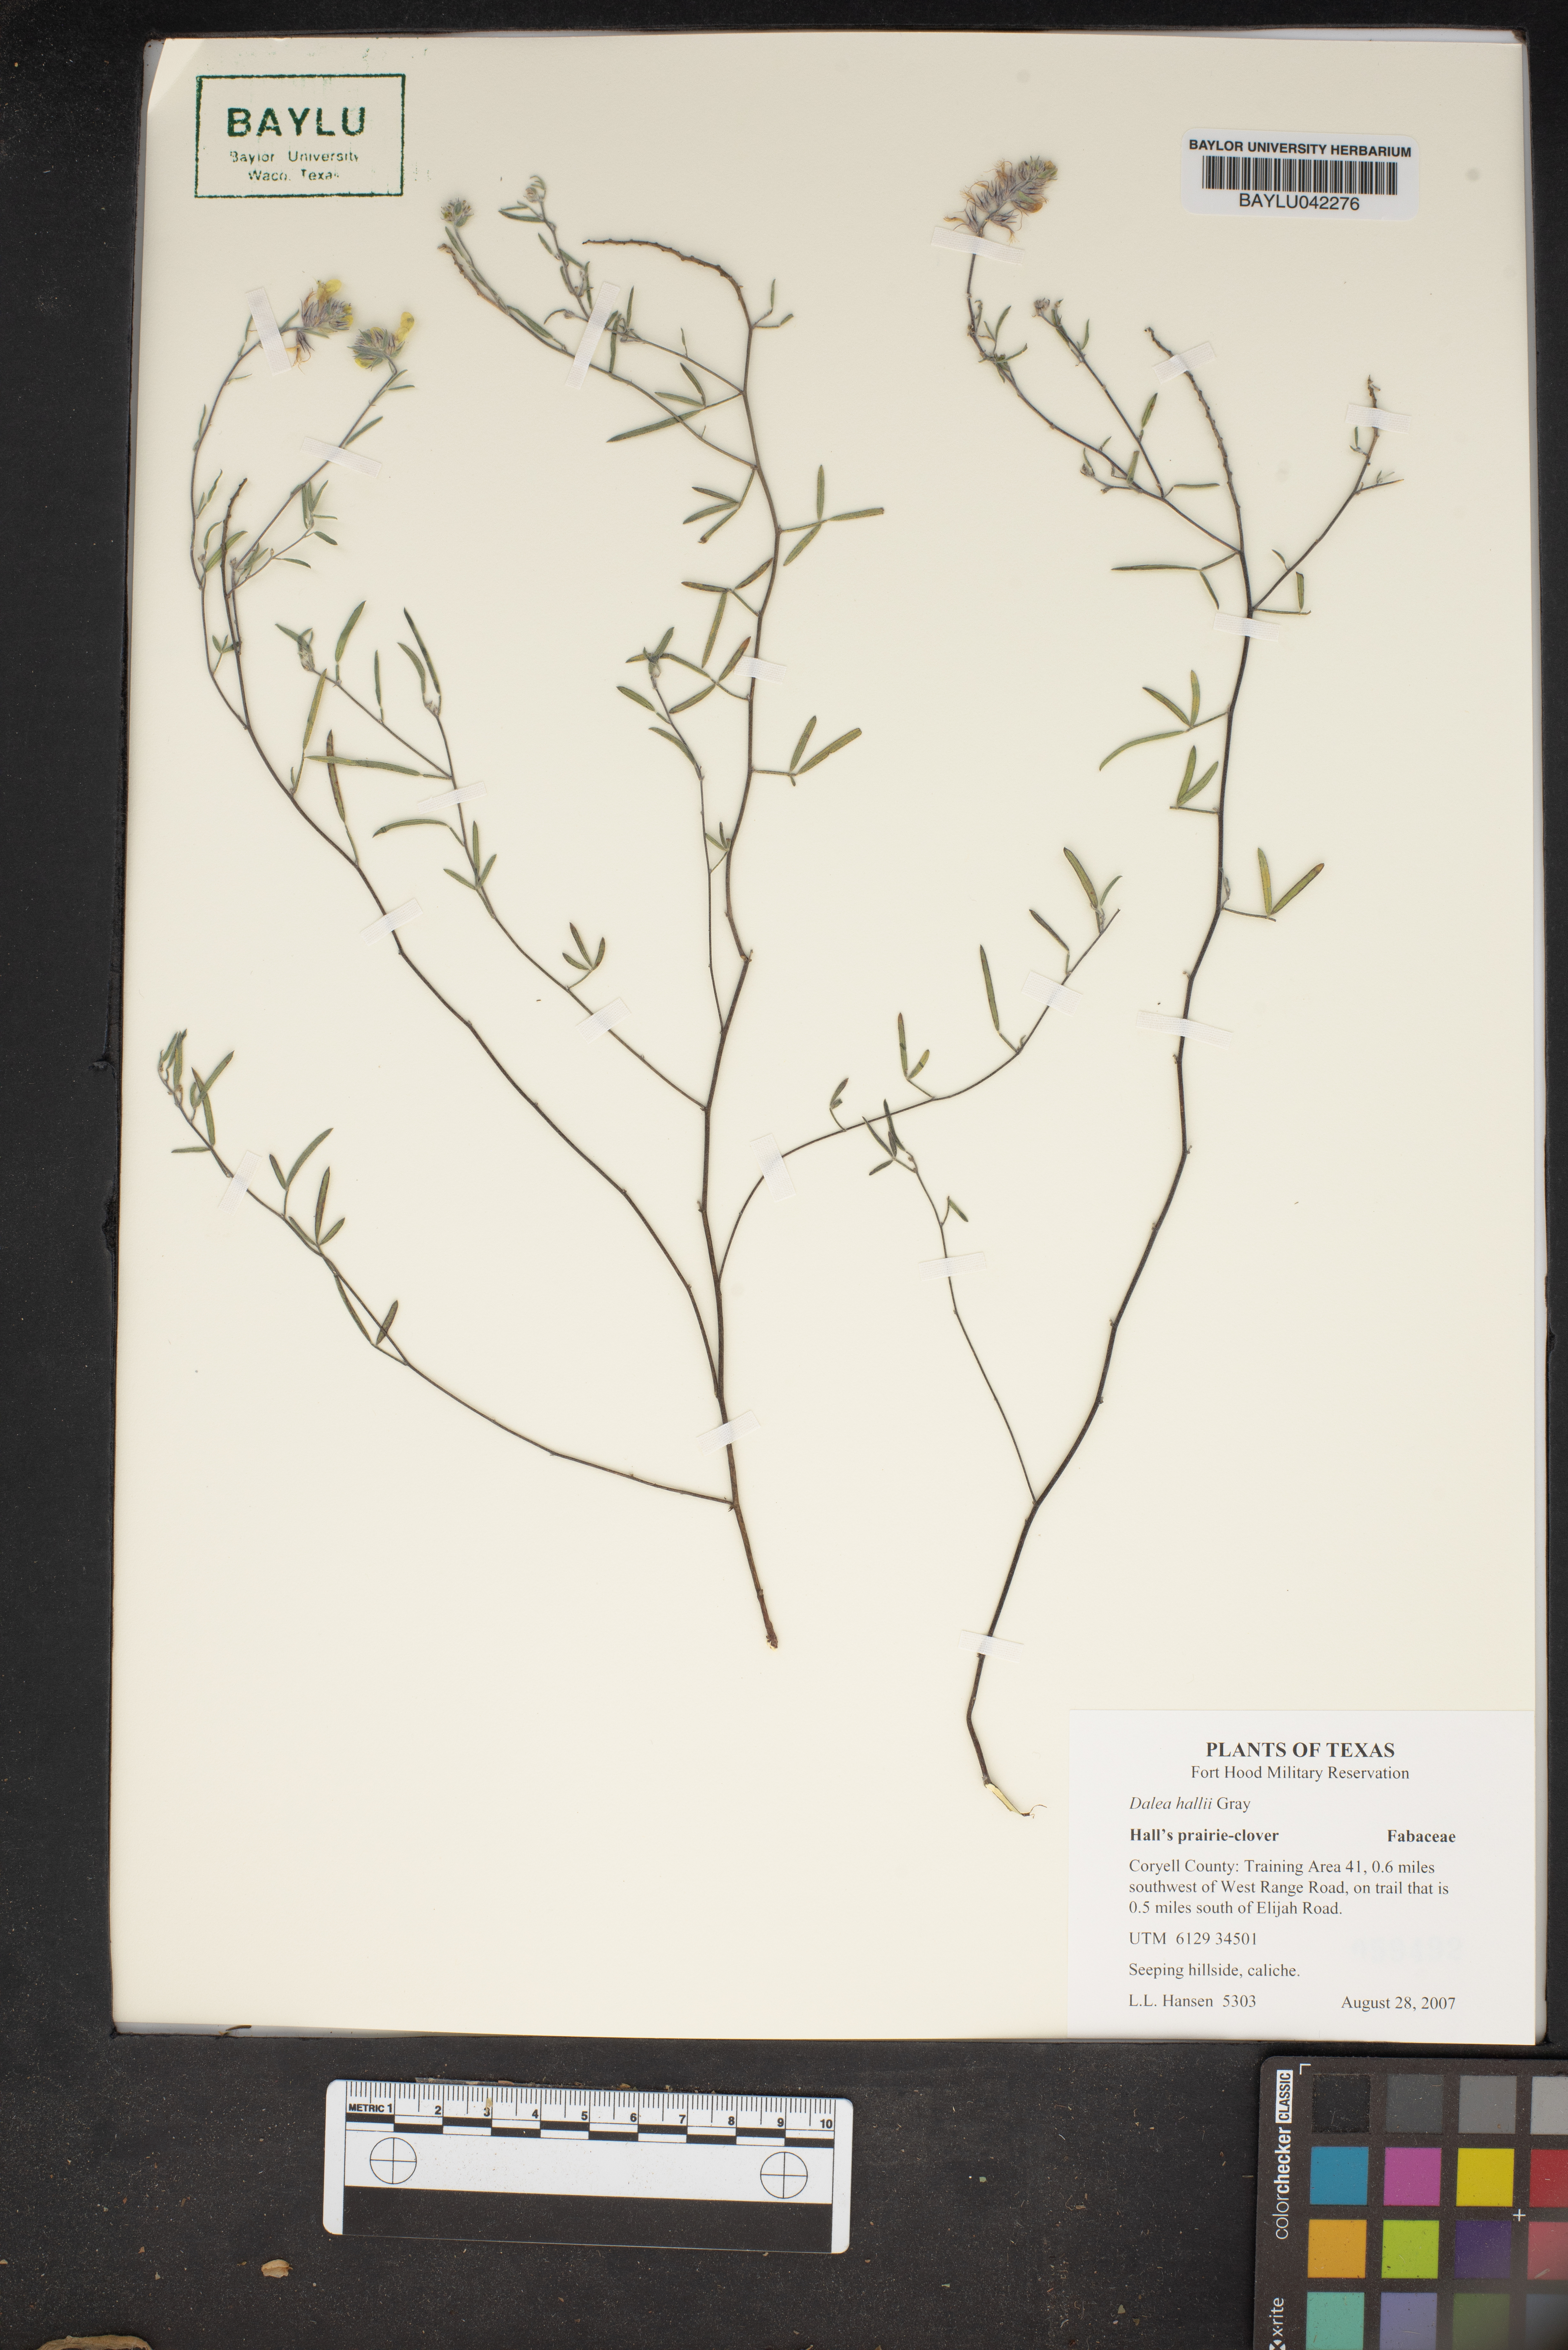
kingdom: Plantae
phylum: Tracheophyta
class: Magnoliopsida
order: Fabales
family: Fabaceae
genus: Dalea
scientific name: Dalea hallii
